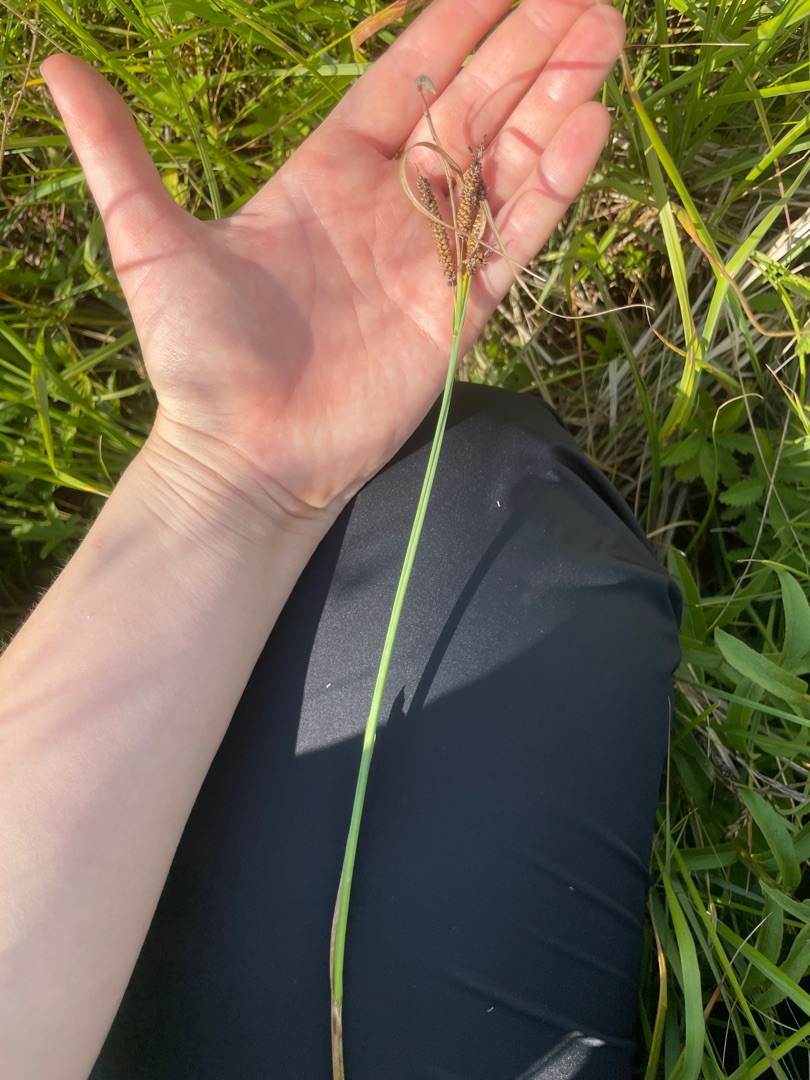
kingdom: Plantae
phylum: Tracheophyta
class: Liliopsida
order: Poales
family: Cyperaceae
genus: Carex
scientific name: Carex flacca
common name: Blågrøn star
